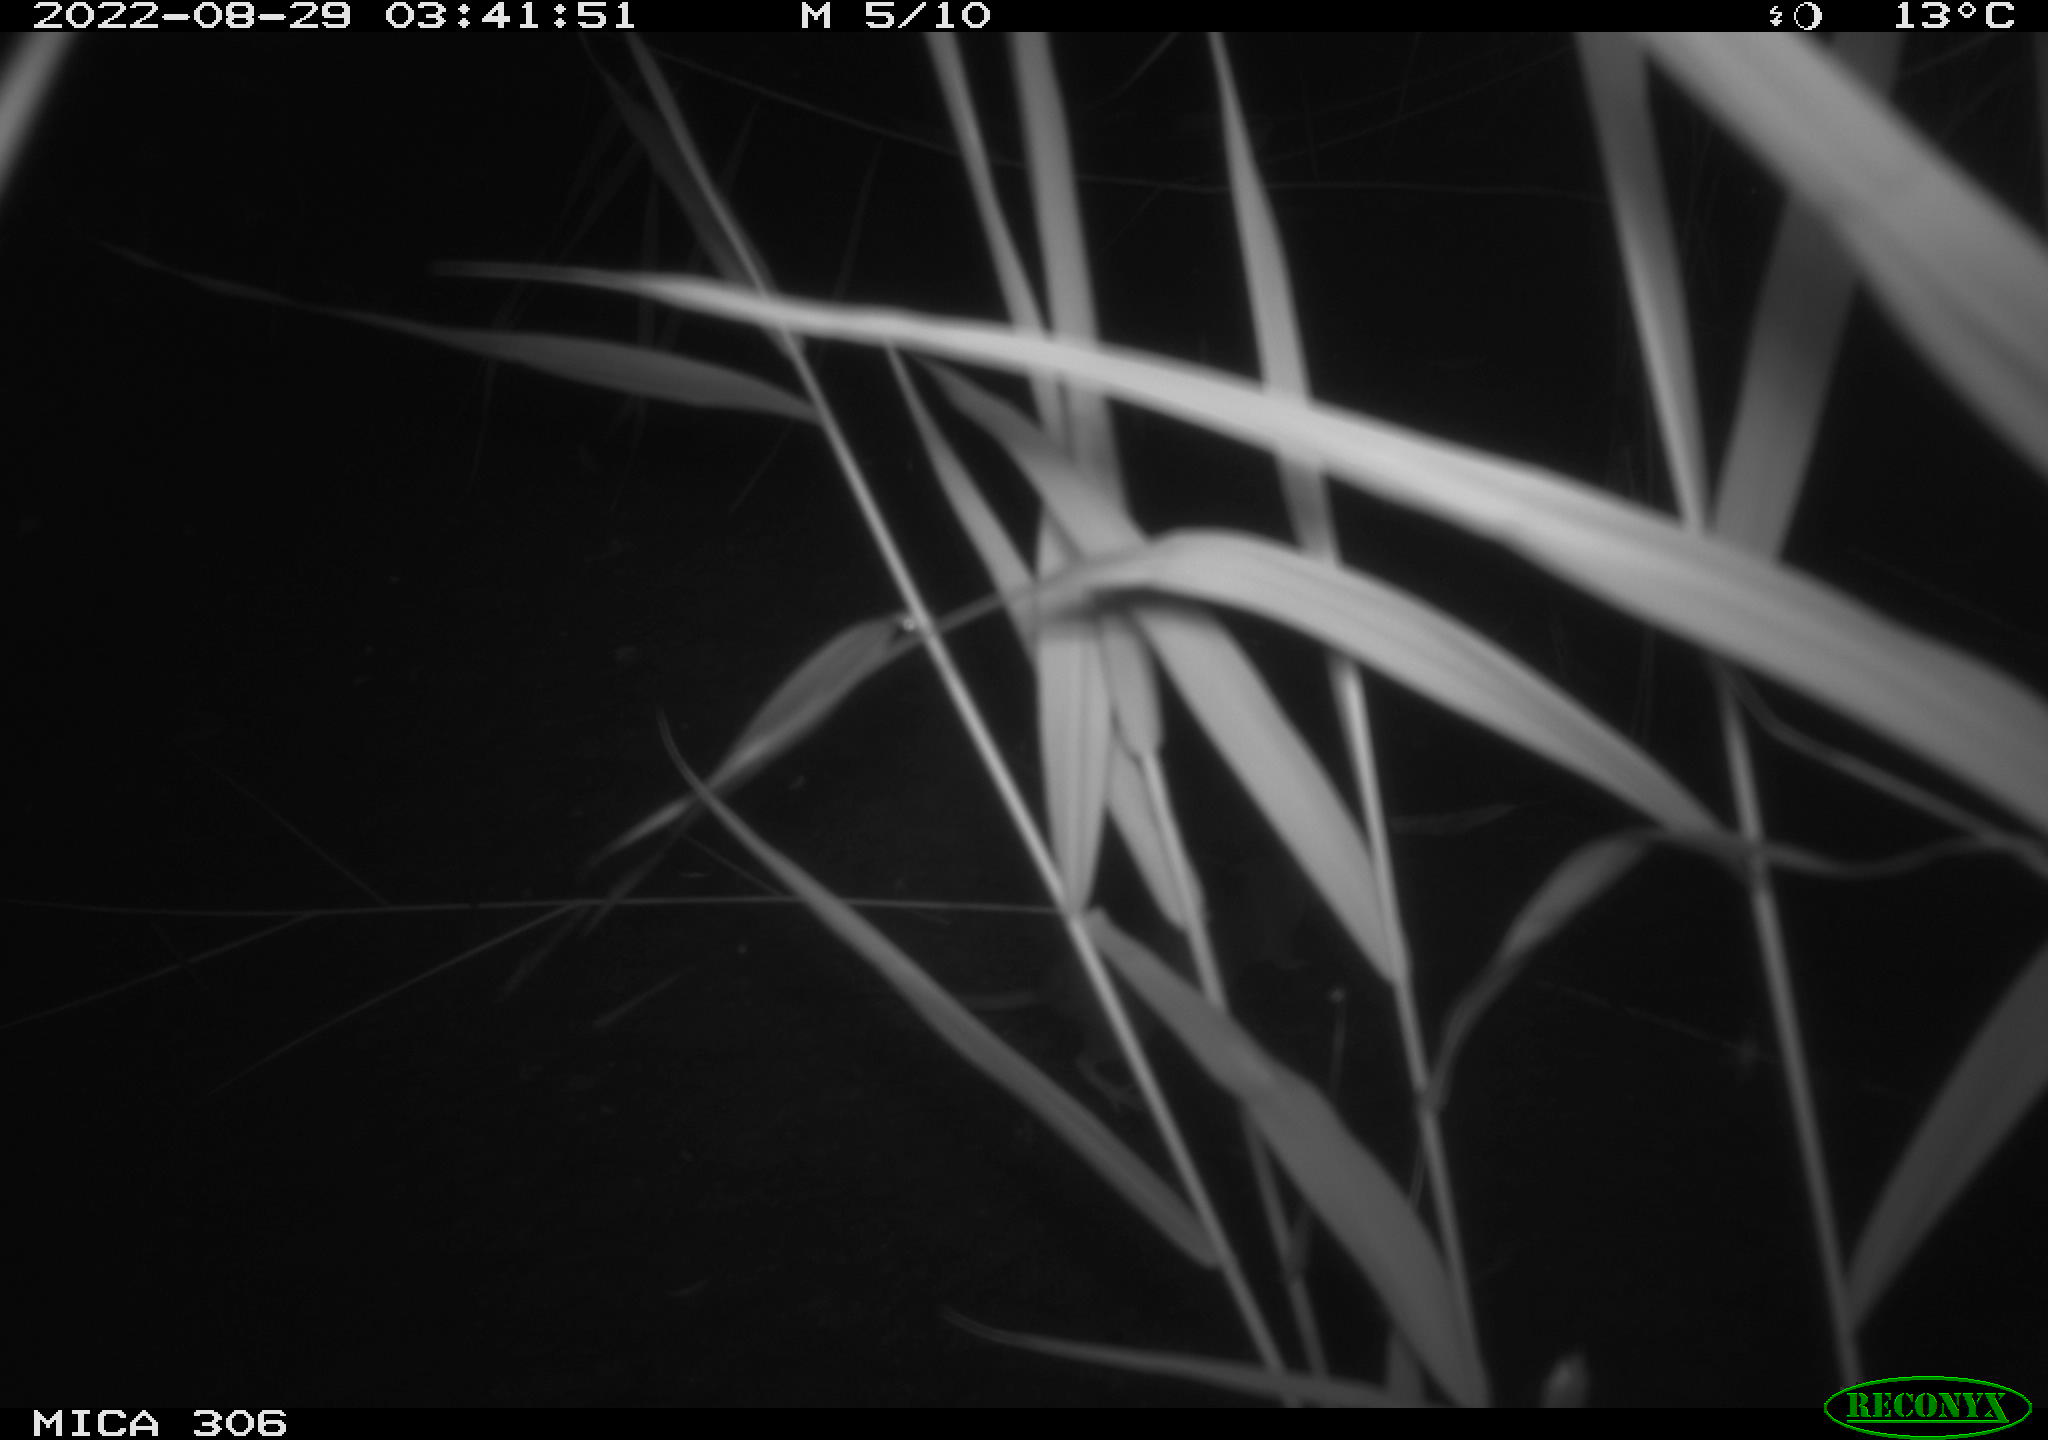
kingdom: Animalia
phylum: Chordata
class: Mammalia
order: Rodentia
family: Muridae
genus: Rattus
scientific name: Rattus norvegicus
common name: Brown rat
